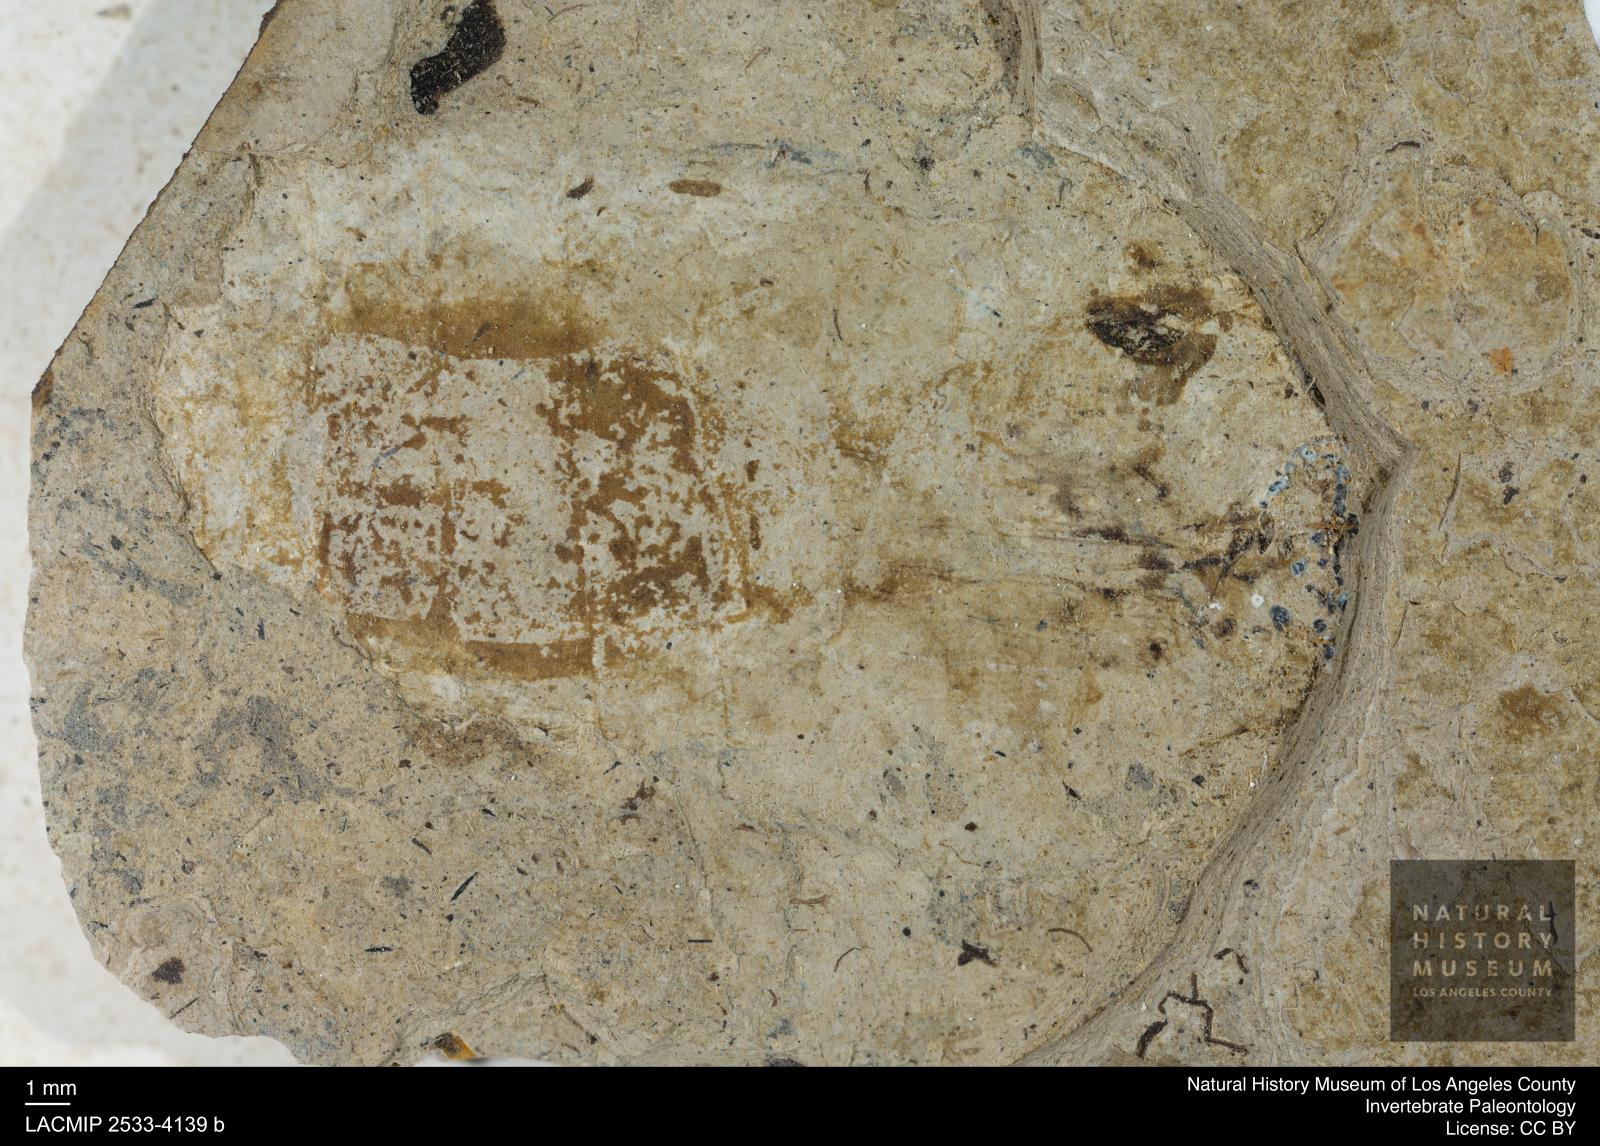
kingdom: Animalia
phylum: Arthropoda
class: Insecta
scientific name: Insecta
